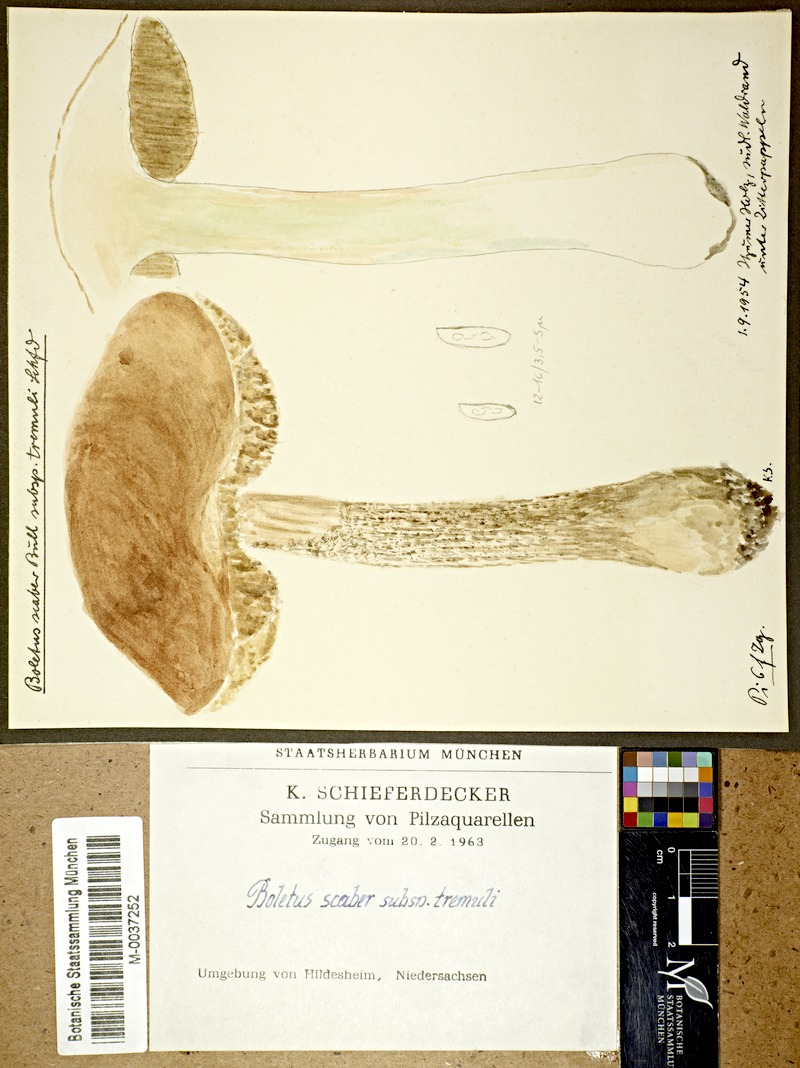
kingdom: Fungi
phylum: Basidiomycota
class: Agaricomycetes
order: Boletales
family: Boletaceae
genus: Leccinum
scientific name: Leccinum scabrum
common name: Blushing bolete
